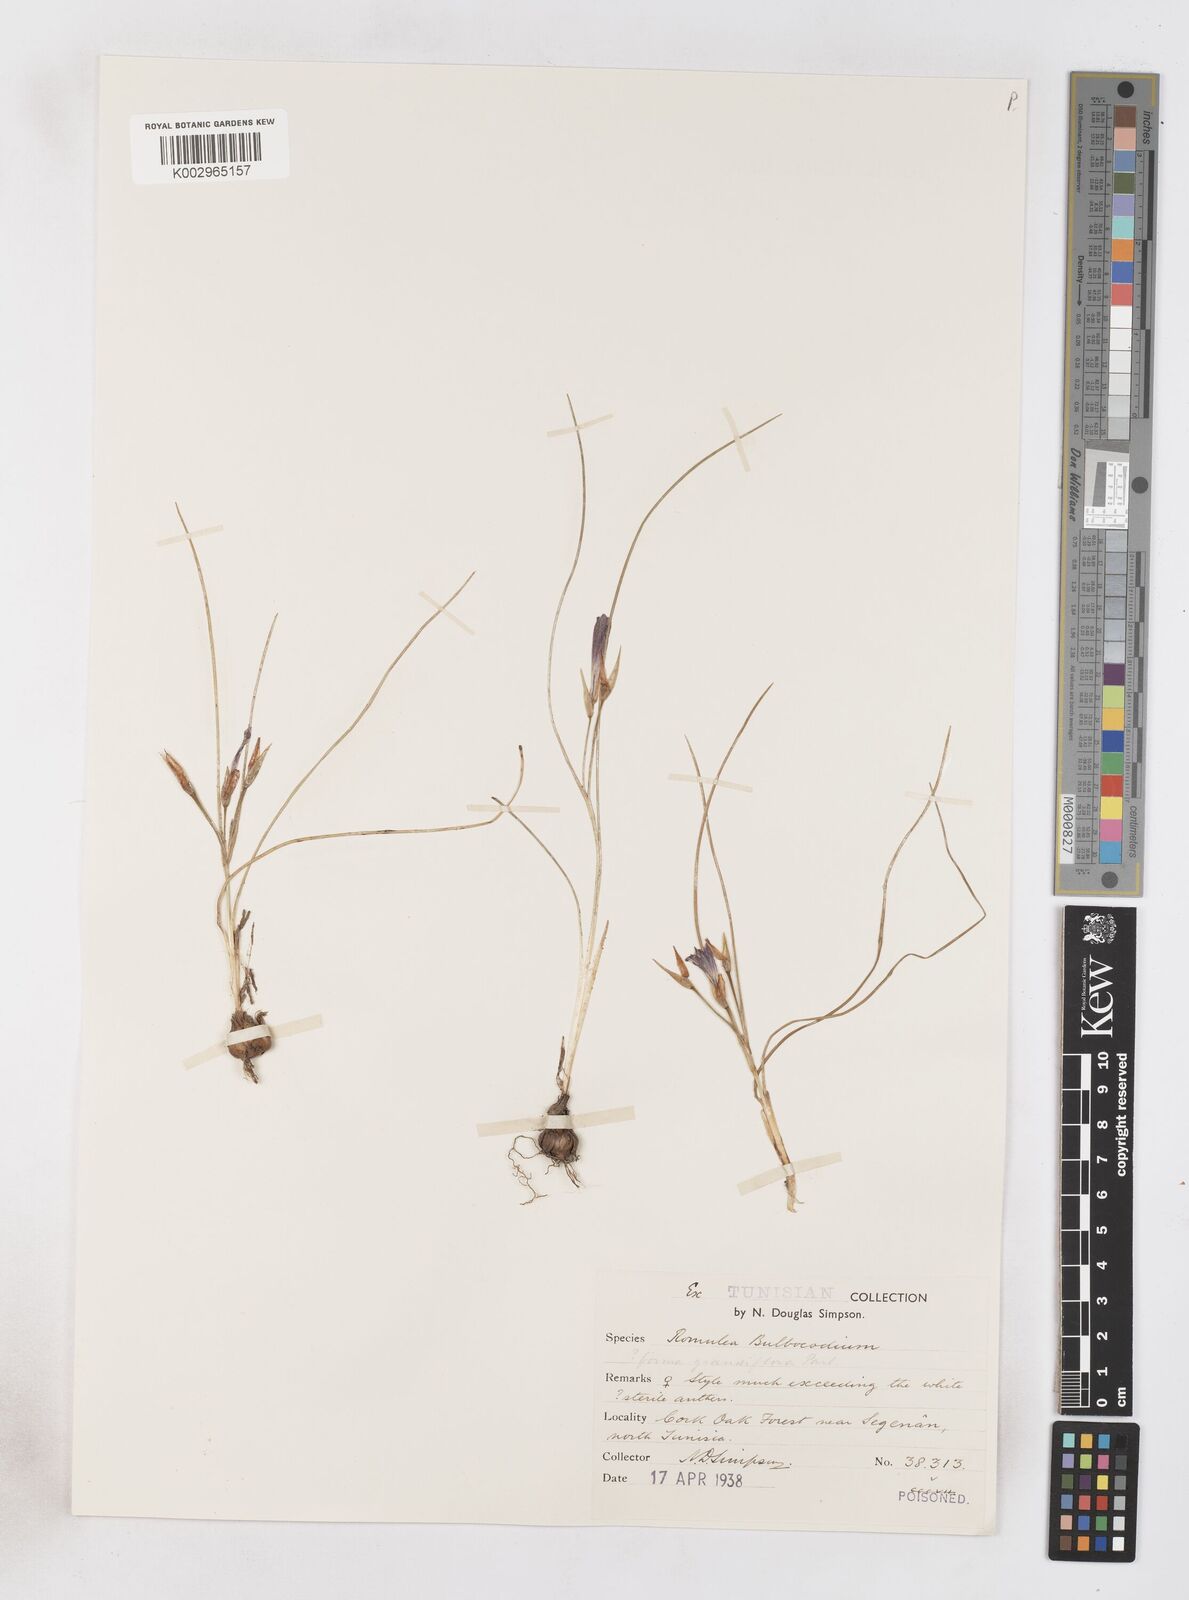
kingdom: Plantae
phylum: Tracheophyta
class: Liliopsida
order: Asparagales
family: Iridaceae
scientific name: Iridaceae
